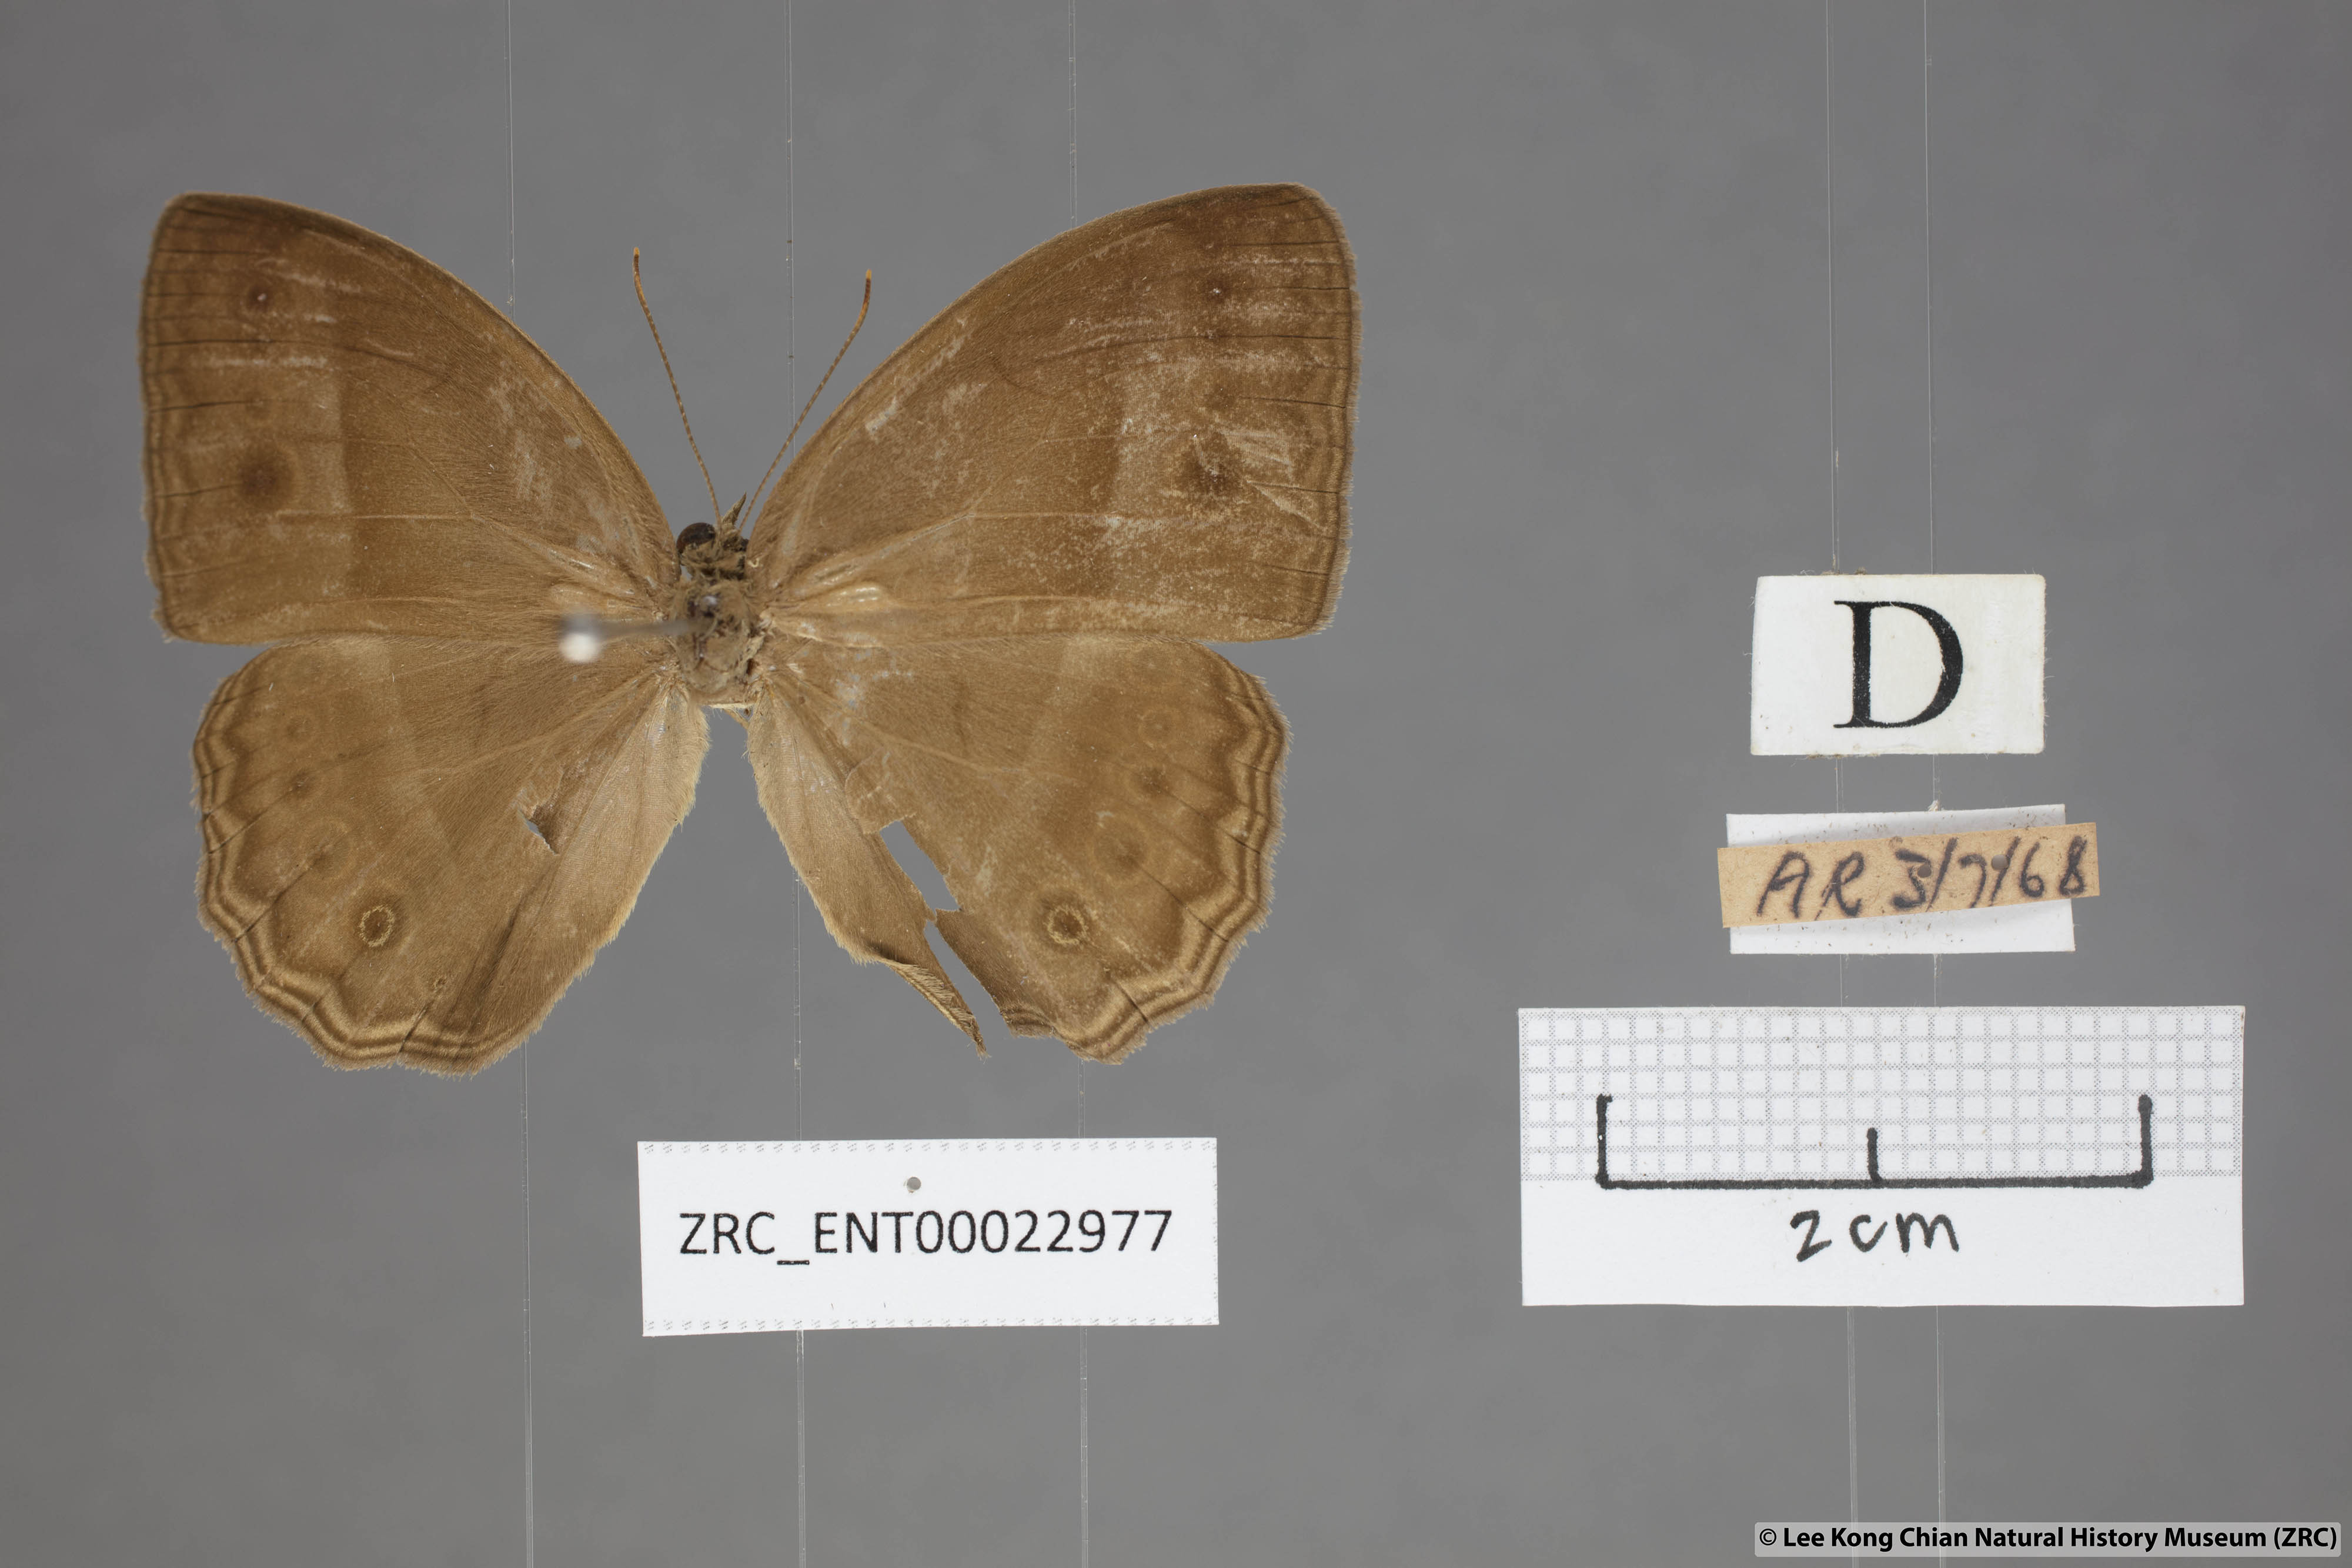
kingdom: Animalia
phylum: Arthropoda
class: Insecta
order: Lepidoptera
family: Nymphalidae
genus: Mycalesis
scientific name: Mycalesis orseis
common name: Purple bushbrown
